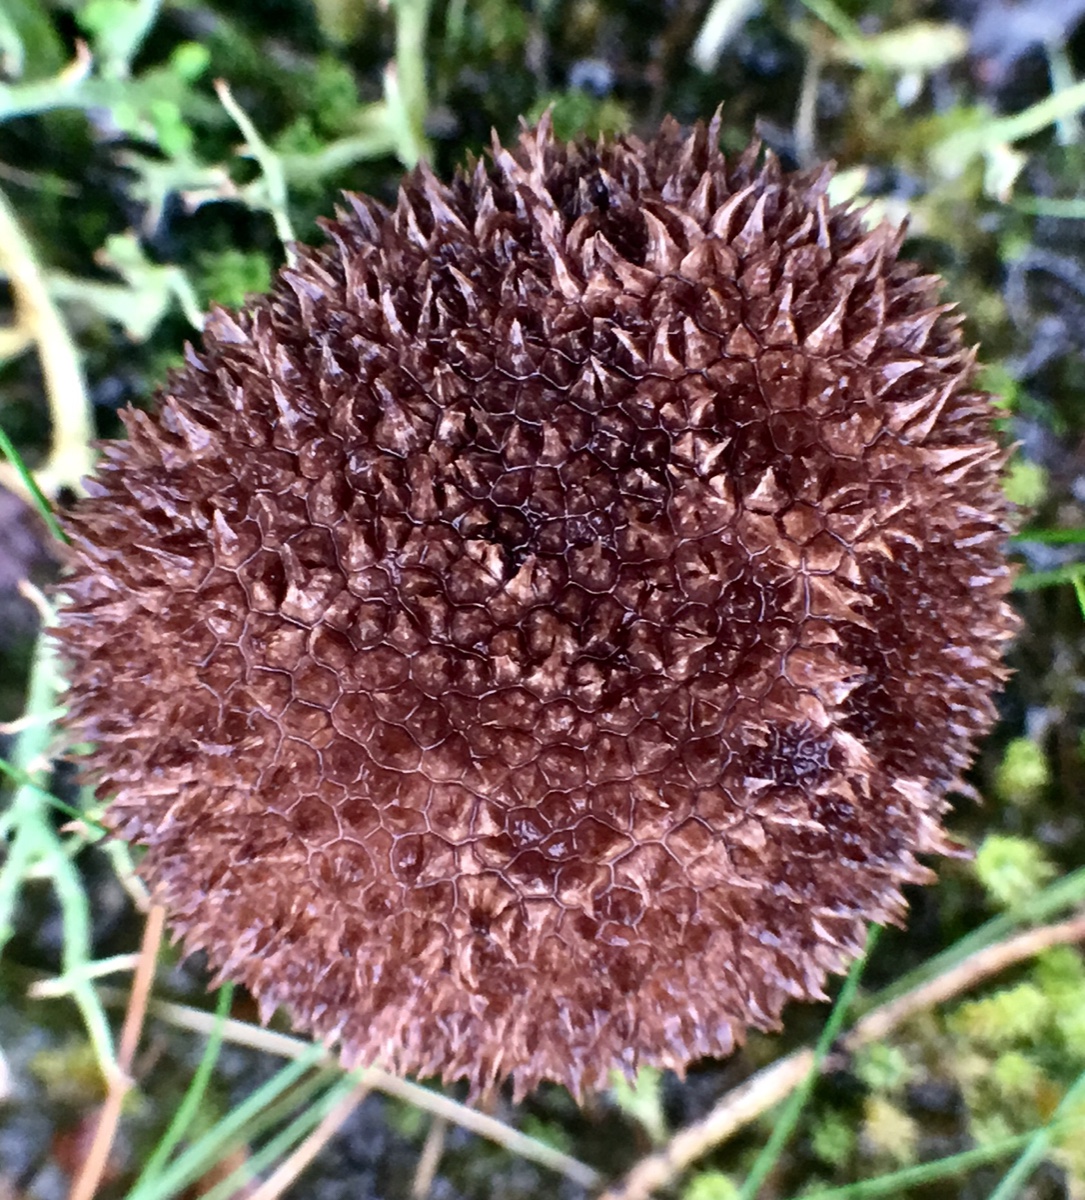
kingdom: Fungi
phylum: Basidiomycota
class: Agaricomycetes
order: Agaricales
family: Lycoperdaceae
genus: Lycoperdon
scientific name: Lycoperdon nigrescens
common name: sortagtig støvbold
